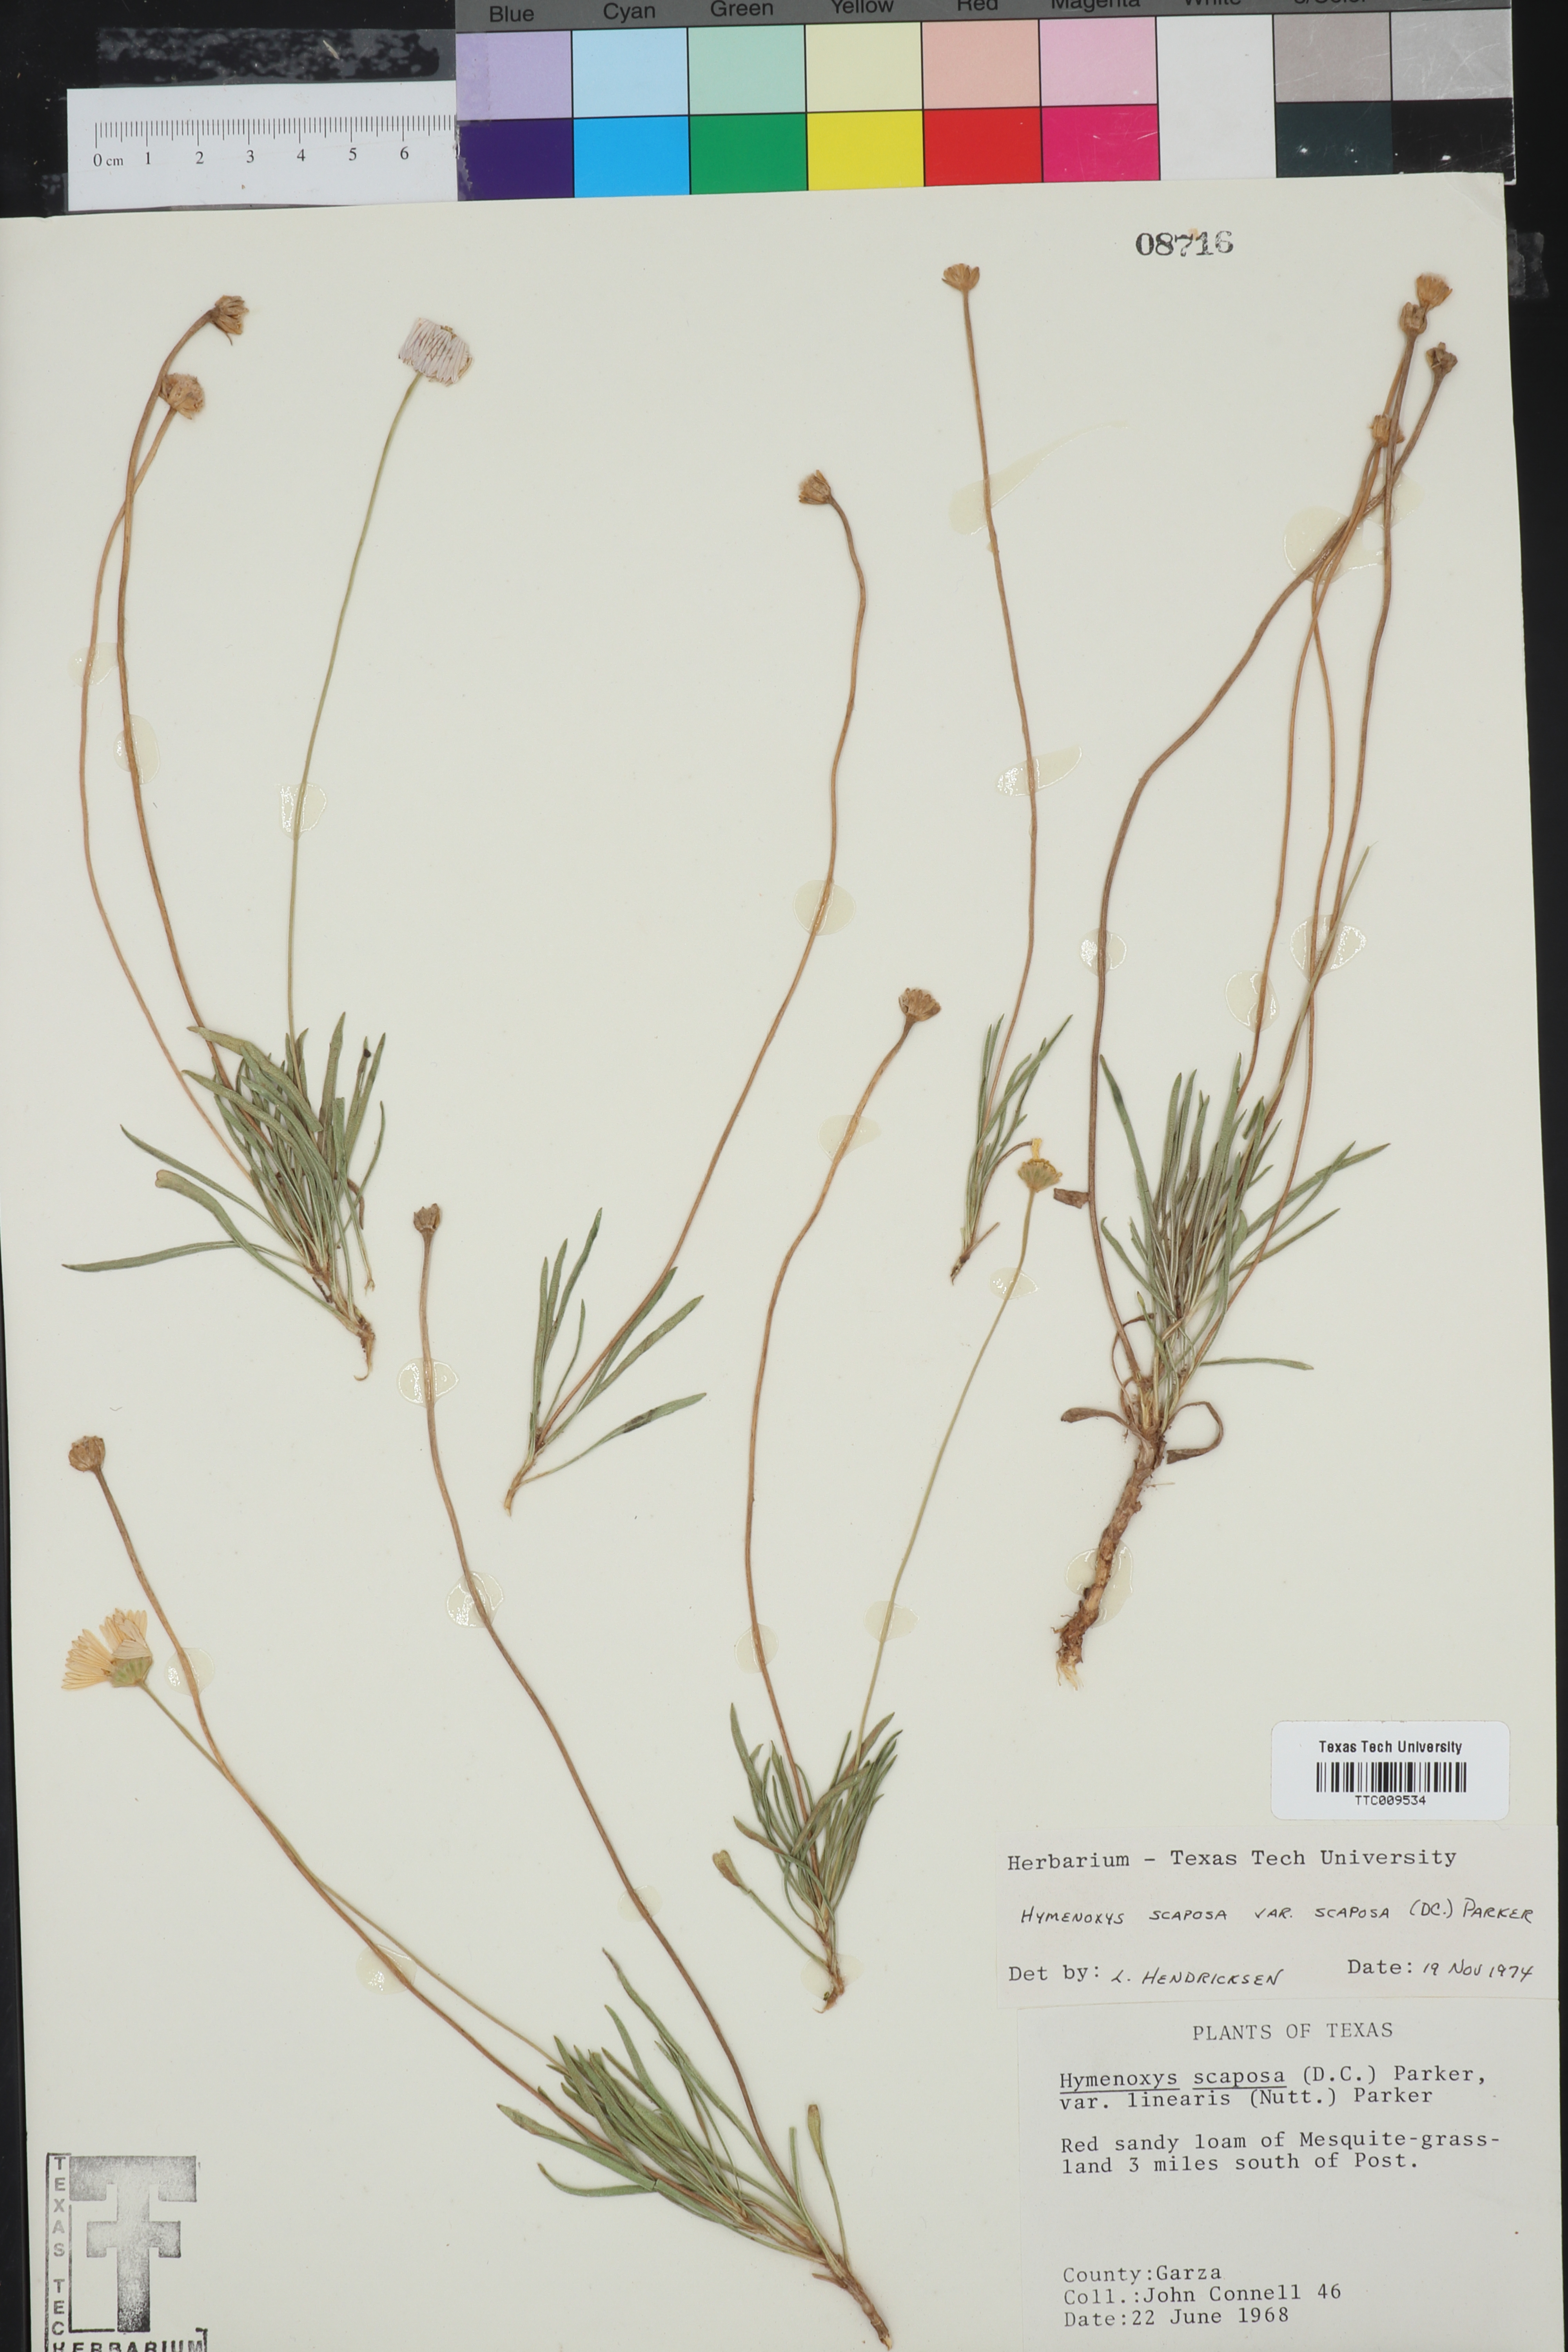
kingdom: Plantae
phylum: Tracheophyta
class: Magnoliopsida
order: Asterales
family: Asteraceae
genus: Tetraneuris
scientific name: Tetraneuris scaposa
